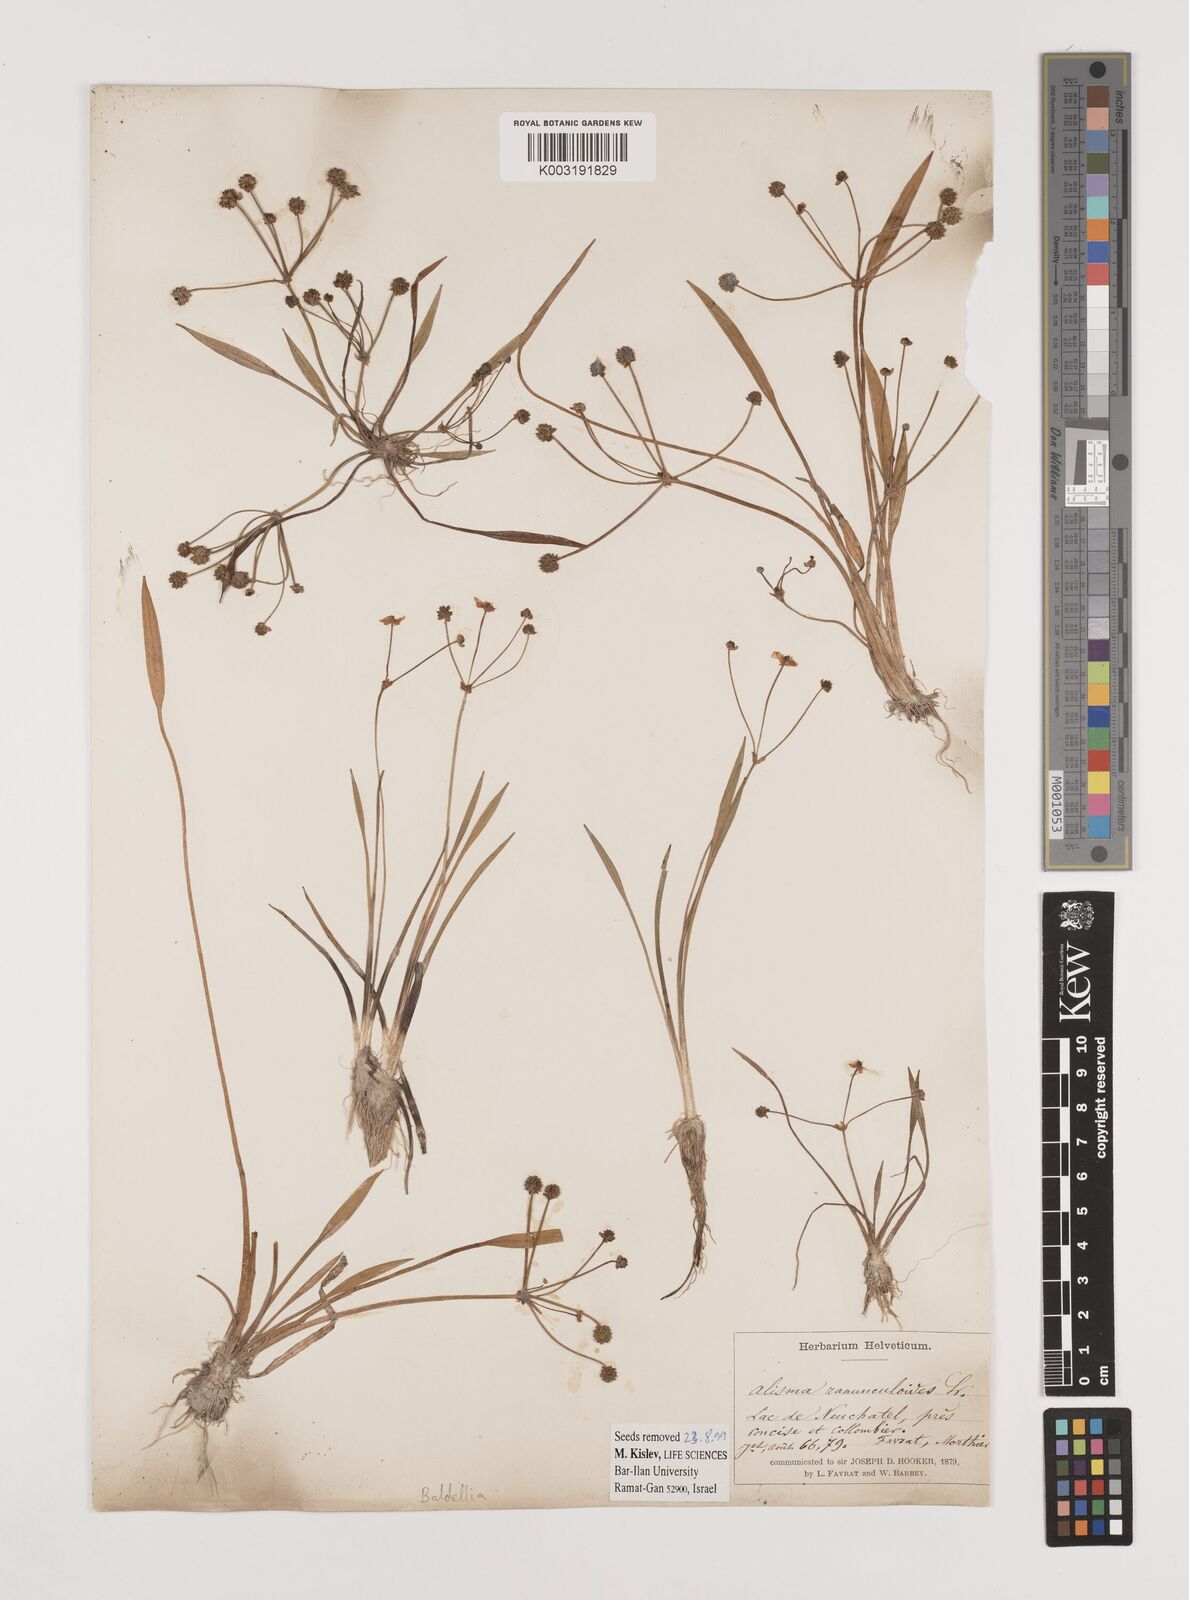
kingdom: Plantae
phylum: Tracheophyta
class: Liliopsida
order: Alismatales
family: Alismataceae
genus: Baldellia
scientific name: Baldellia ranunculoides
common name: Lesser water-plantain
